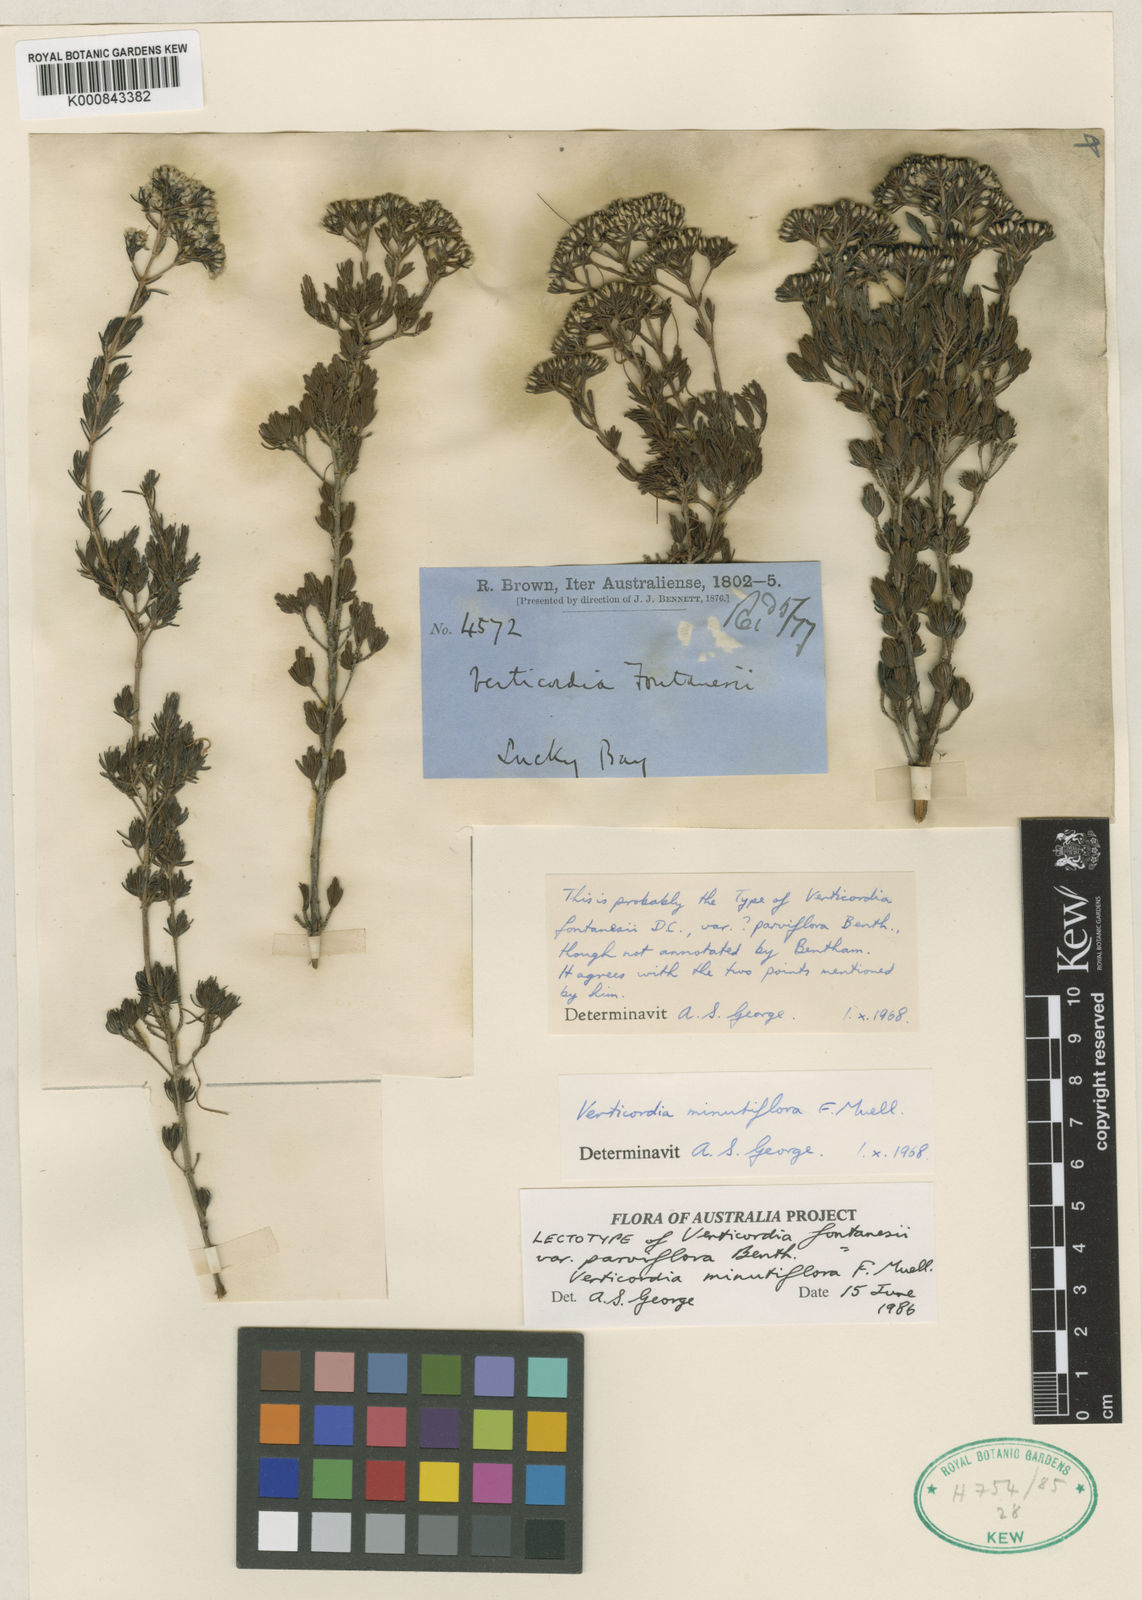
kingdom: Plantae
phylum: Tracheophyta
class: Magnoliopsida
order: Myrtales
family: Myrtaceae
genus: Verticordia
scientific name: Verticordia minutiflora
